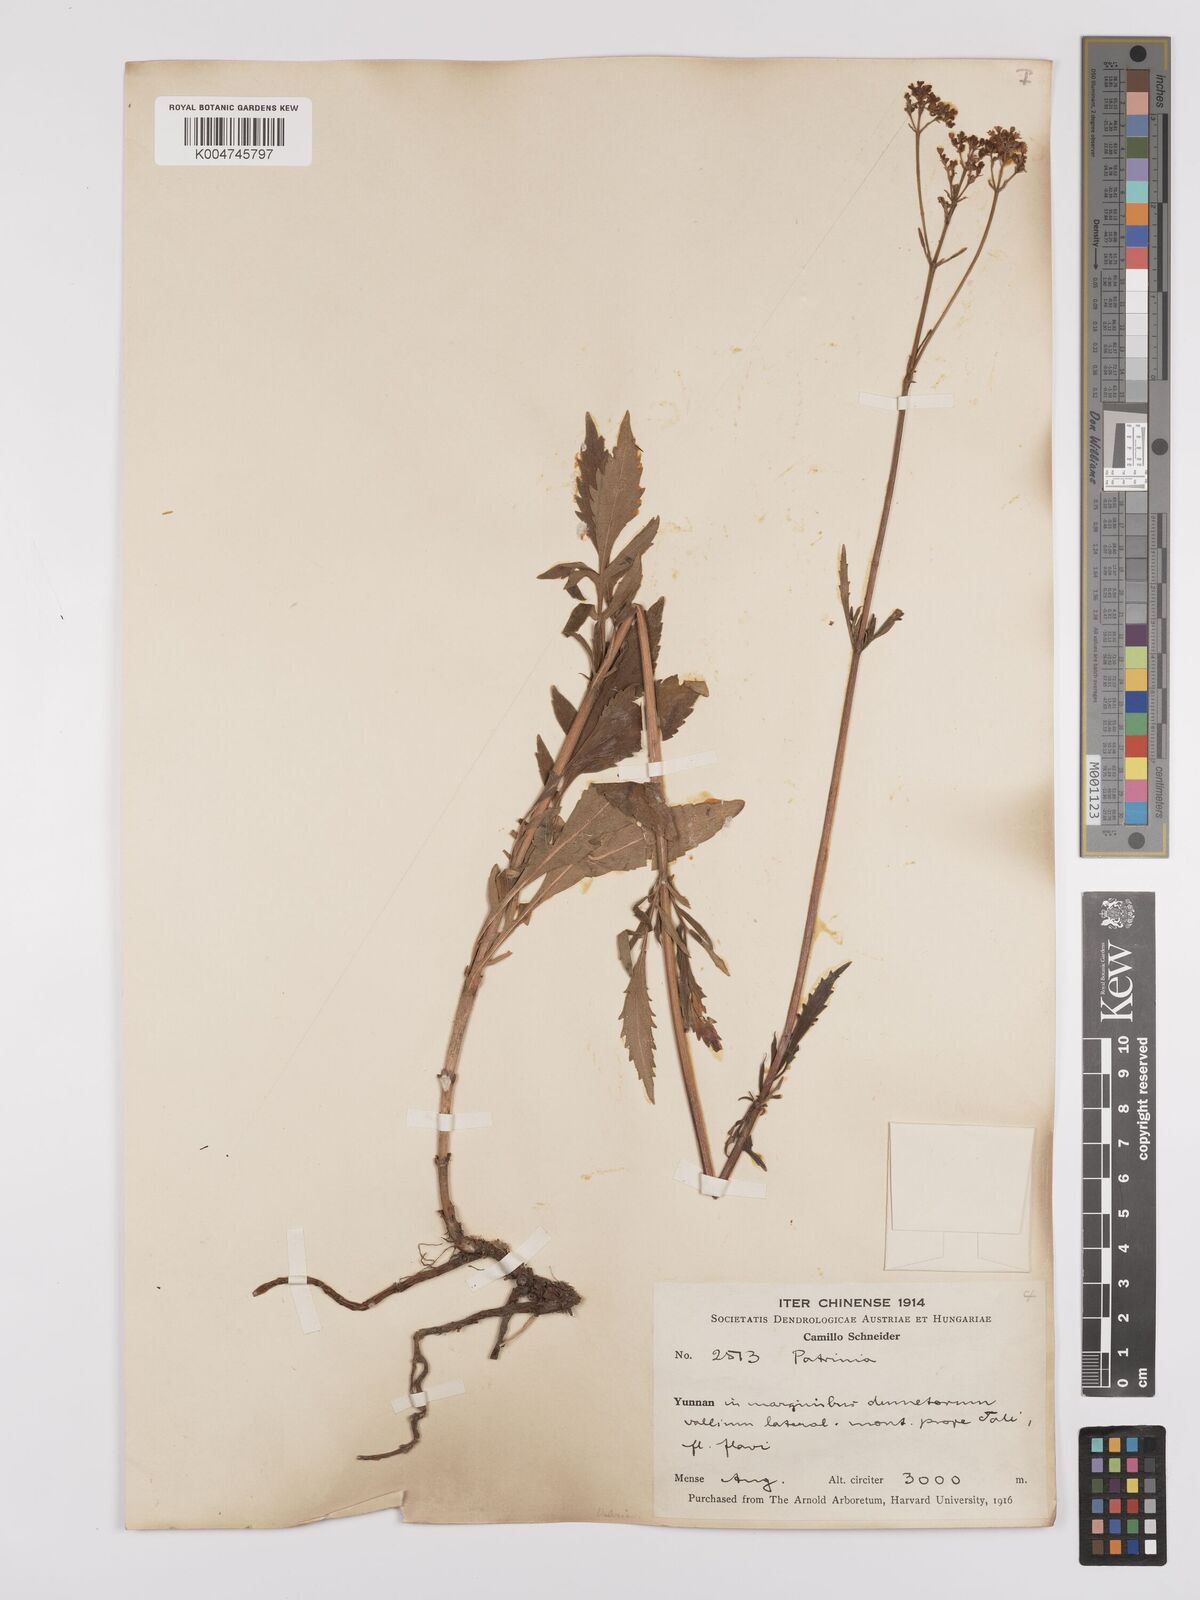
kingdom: Plantae
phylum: Tracheophyta
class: Magnoliopsida
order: Dipsacales
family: Caprifoliaceae
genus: Patrinia
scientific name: Patrinia scabiosifolia
